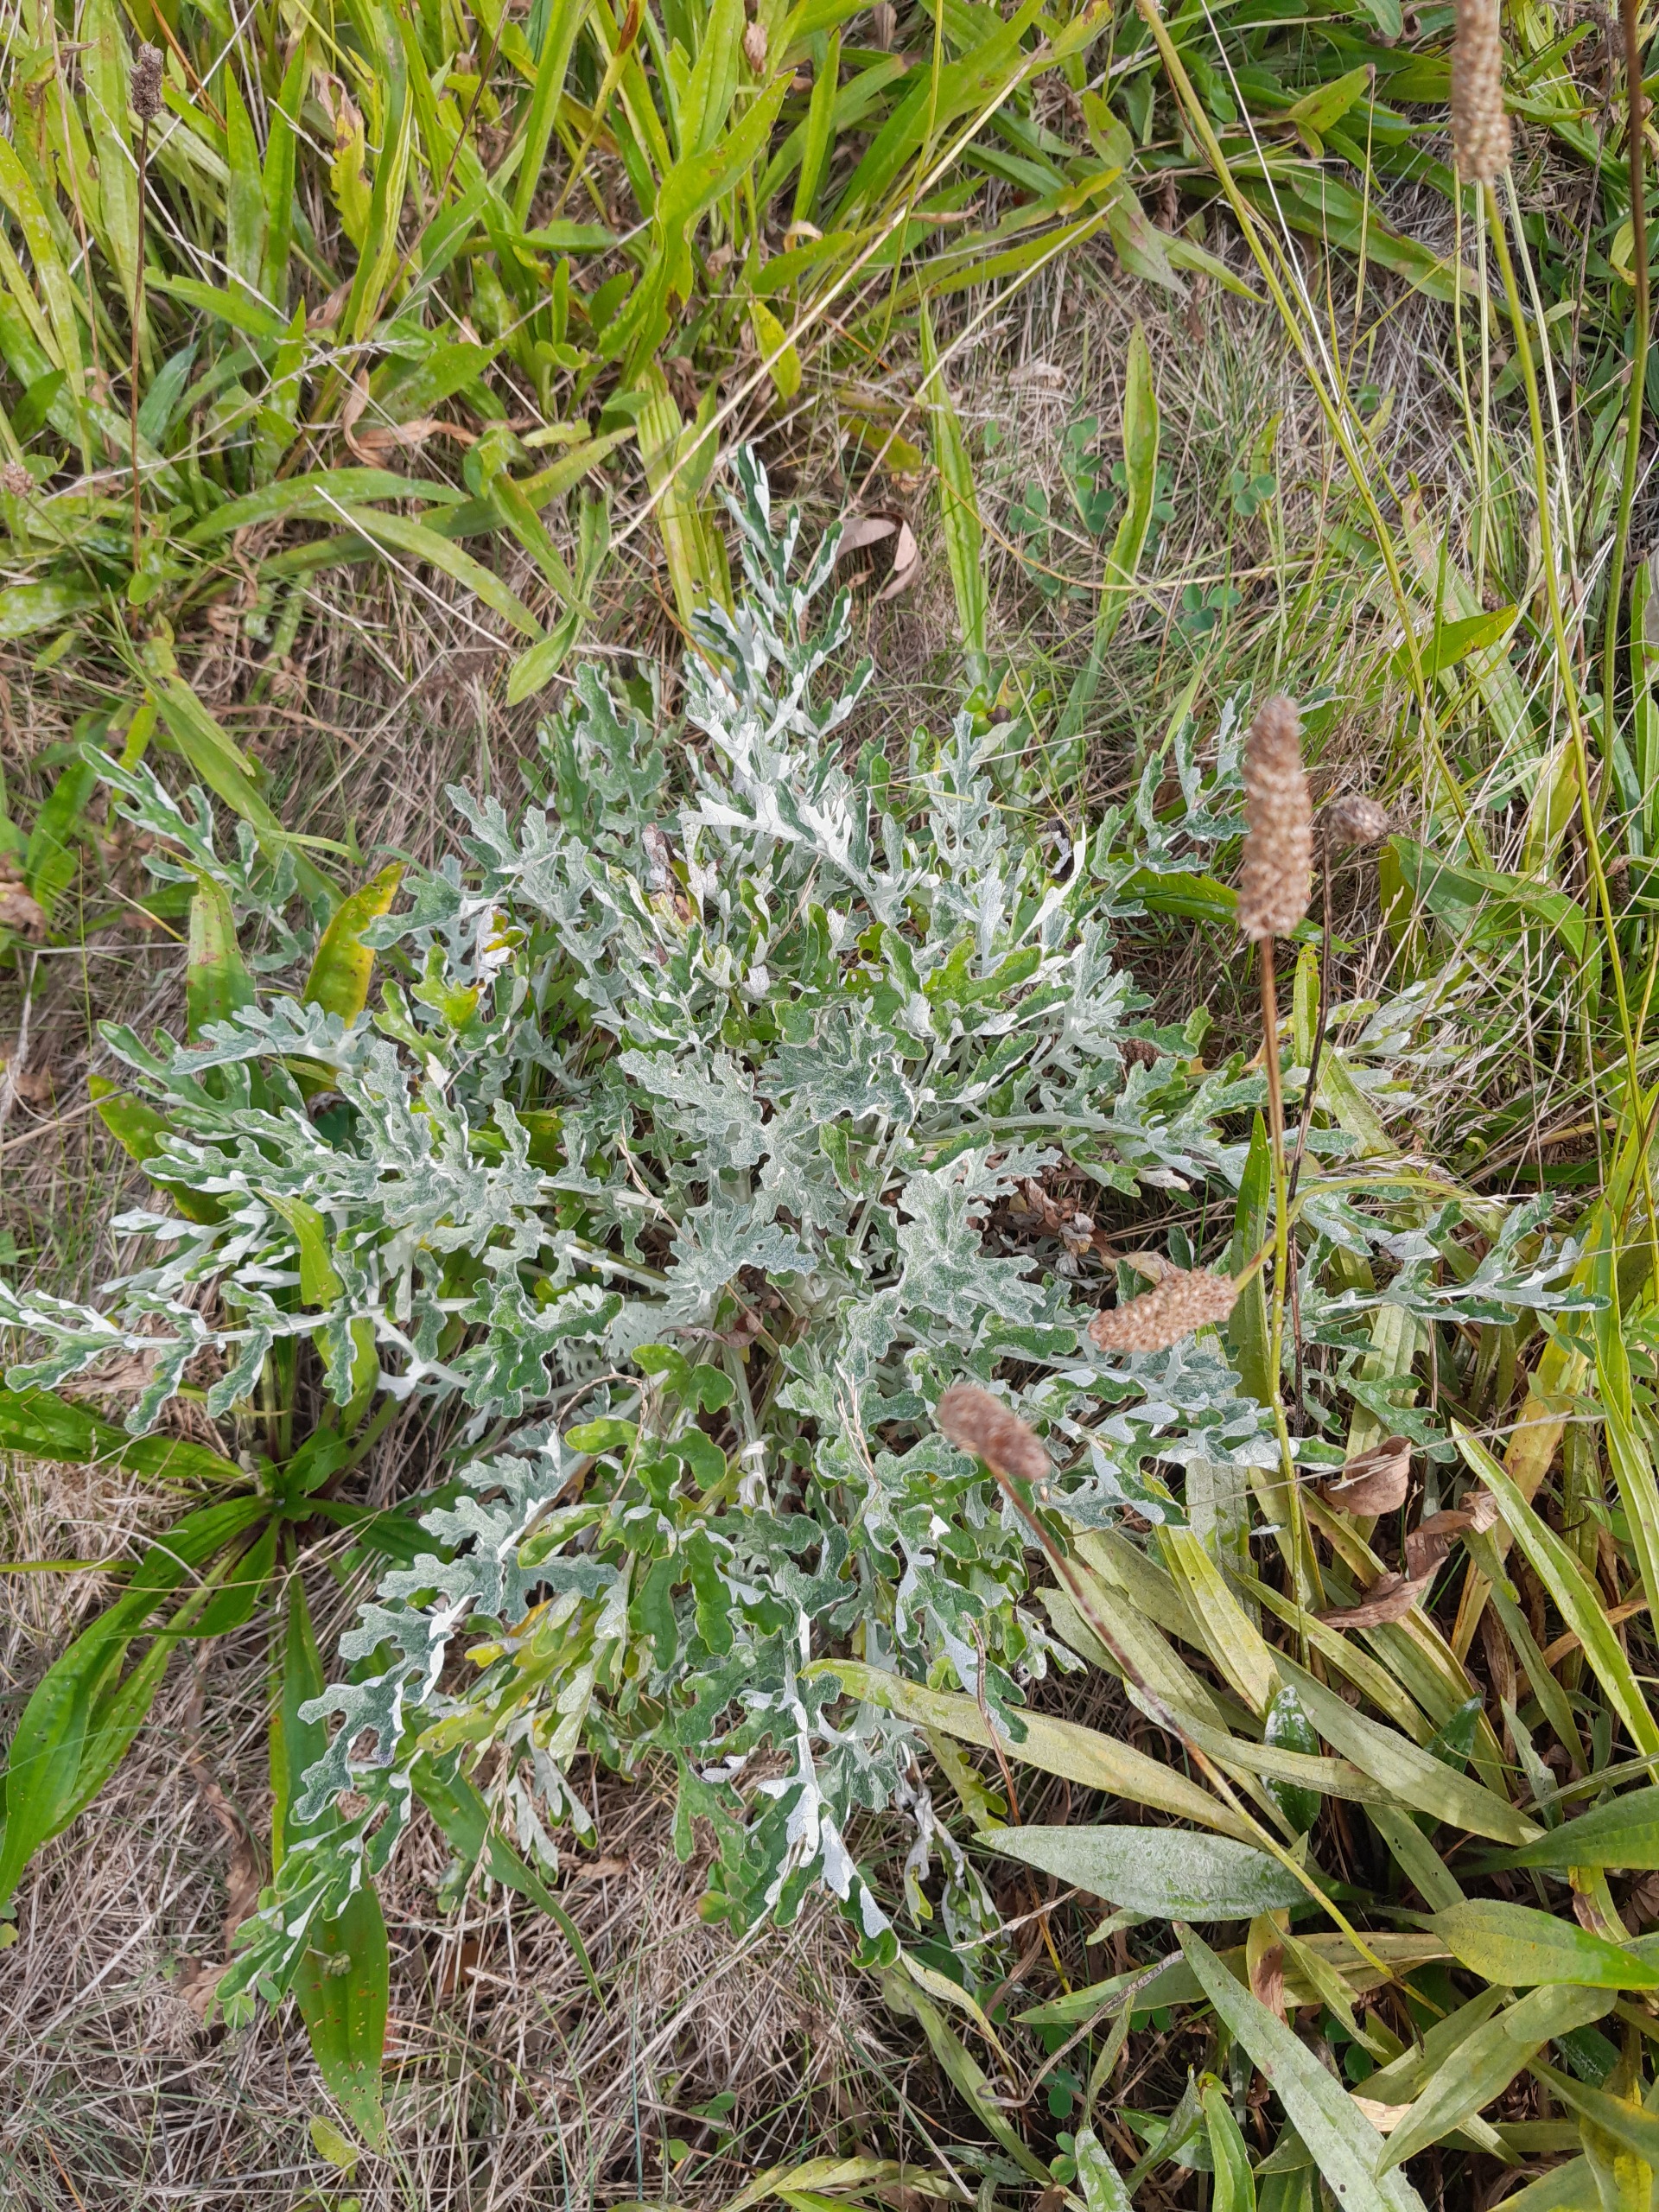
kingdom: Plantae
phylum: Tracheophyta
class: Magnoliopsida
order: Asterales
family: Asteraceae
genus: Jacobaea
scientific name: Jacobaea
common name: Gråblad × eng-brandbæger
